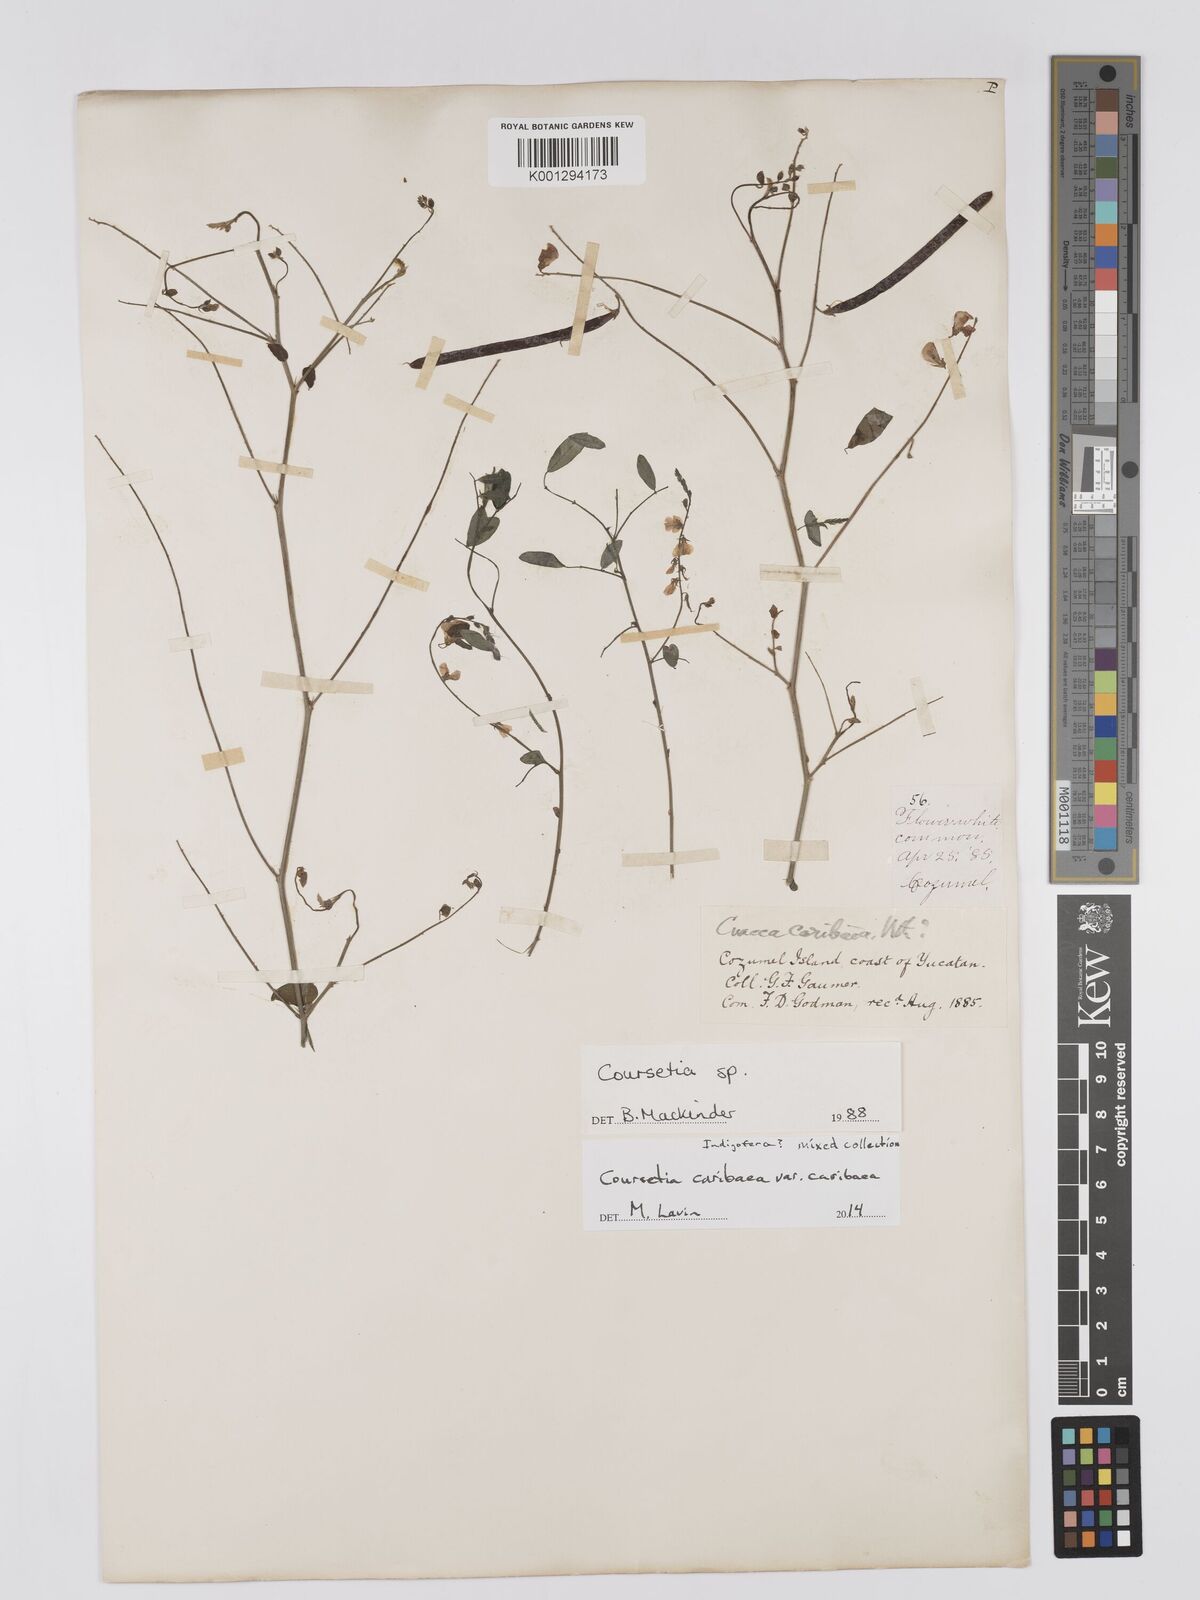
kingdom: Plantae
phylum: Tracheophyta
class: Magnoliopsida
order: Fabales
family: Fabaceae
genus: Coursetia
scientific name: Coursetia
